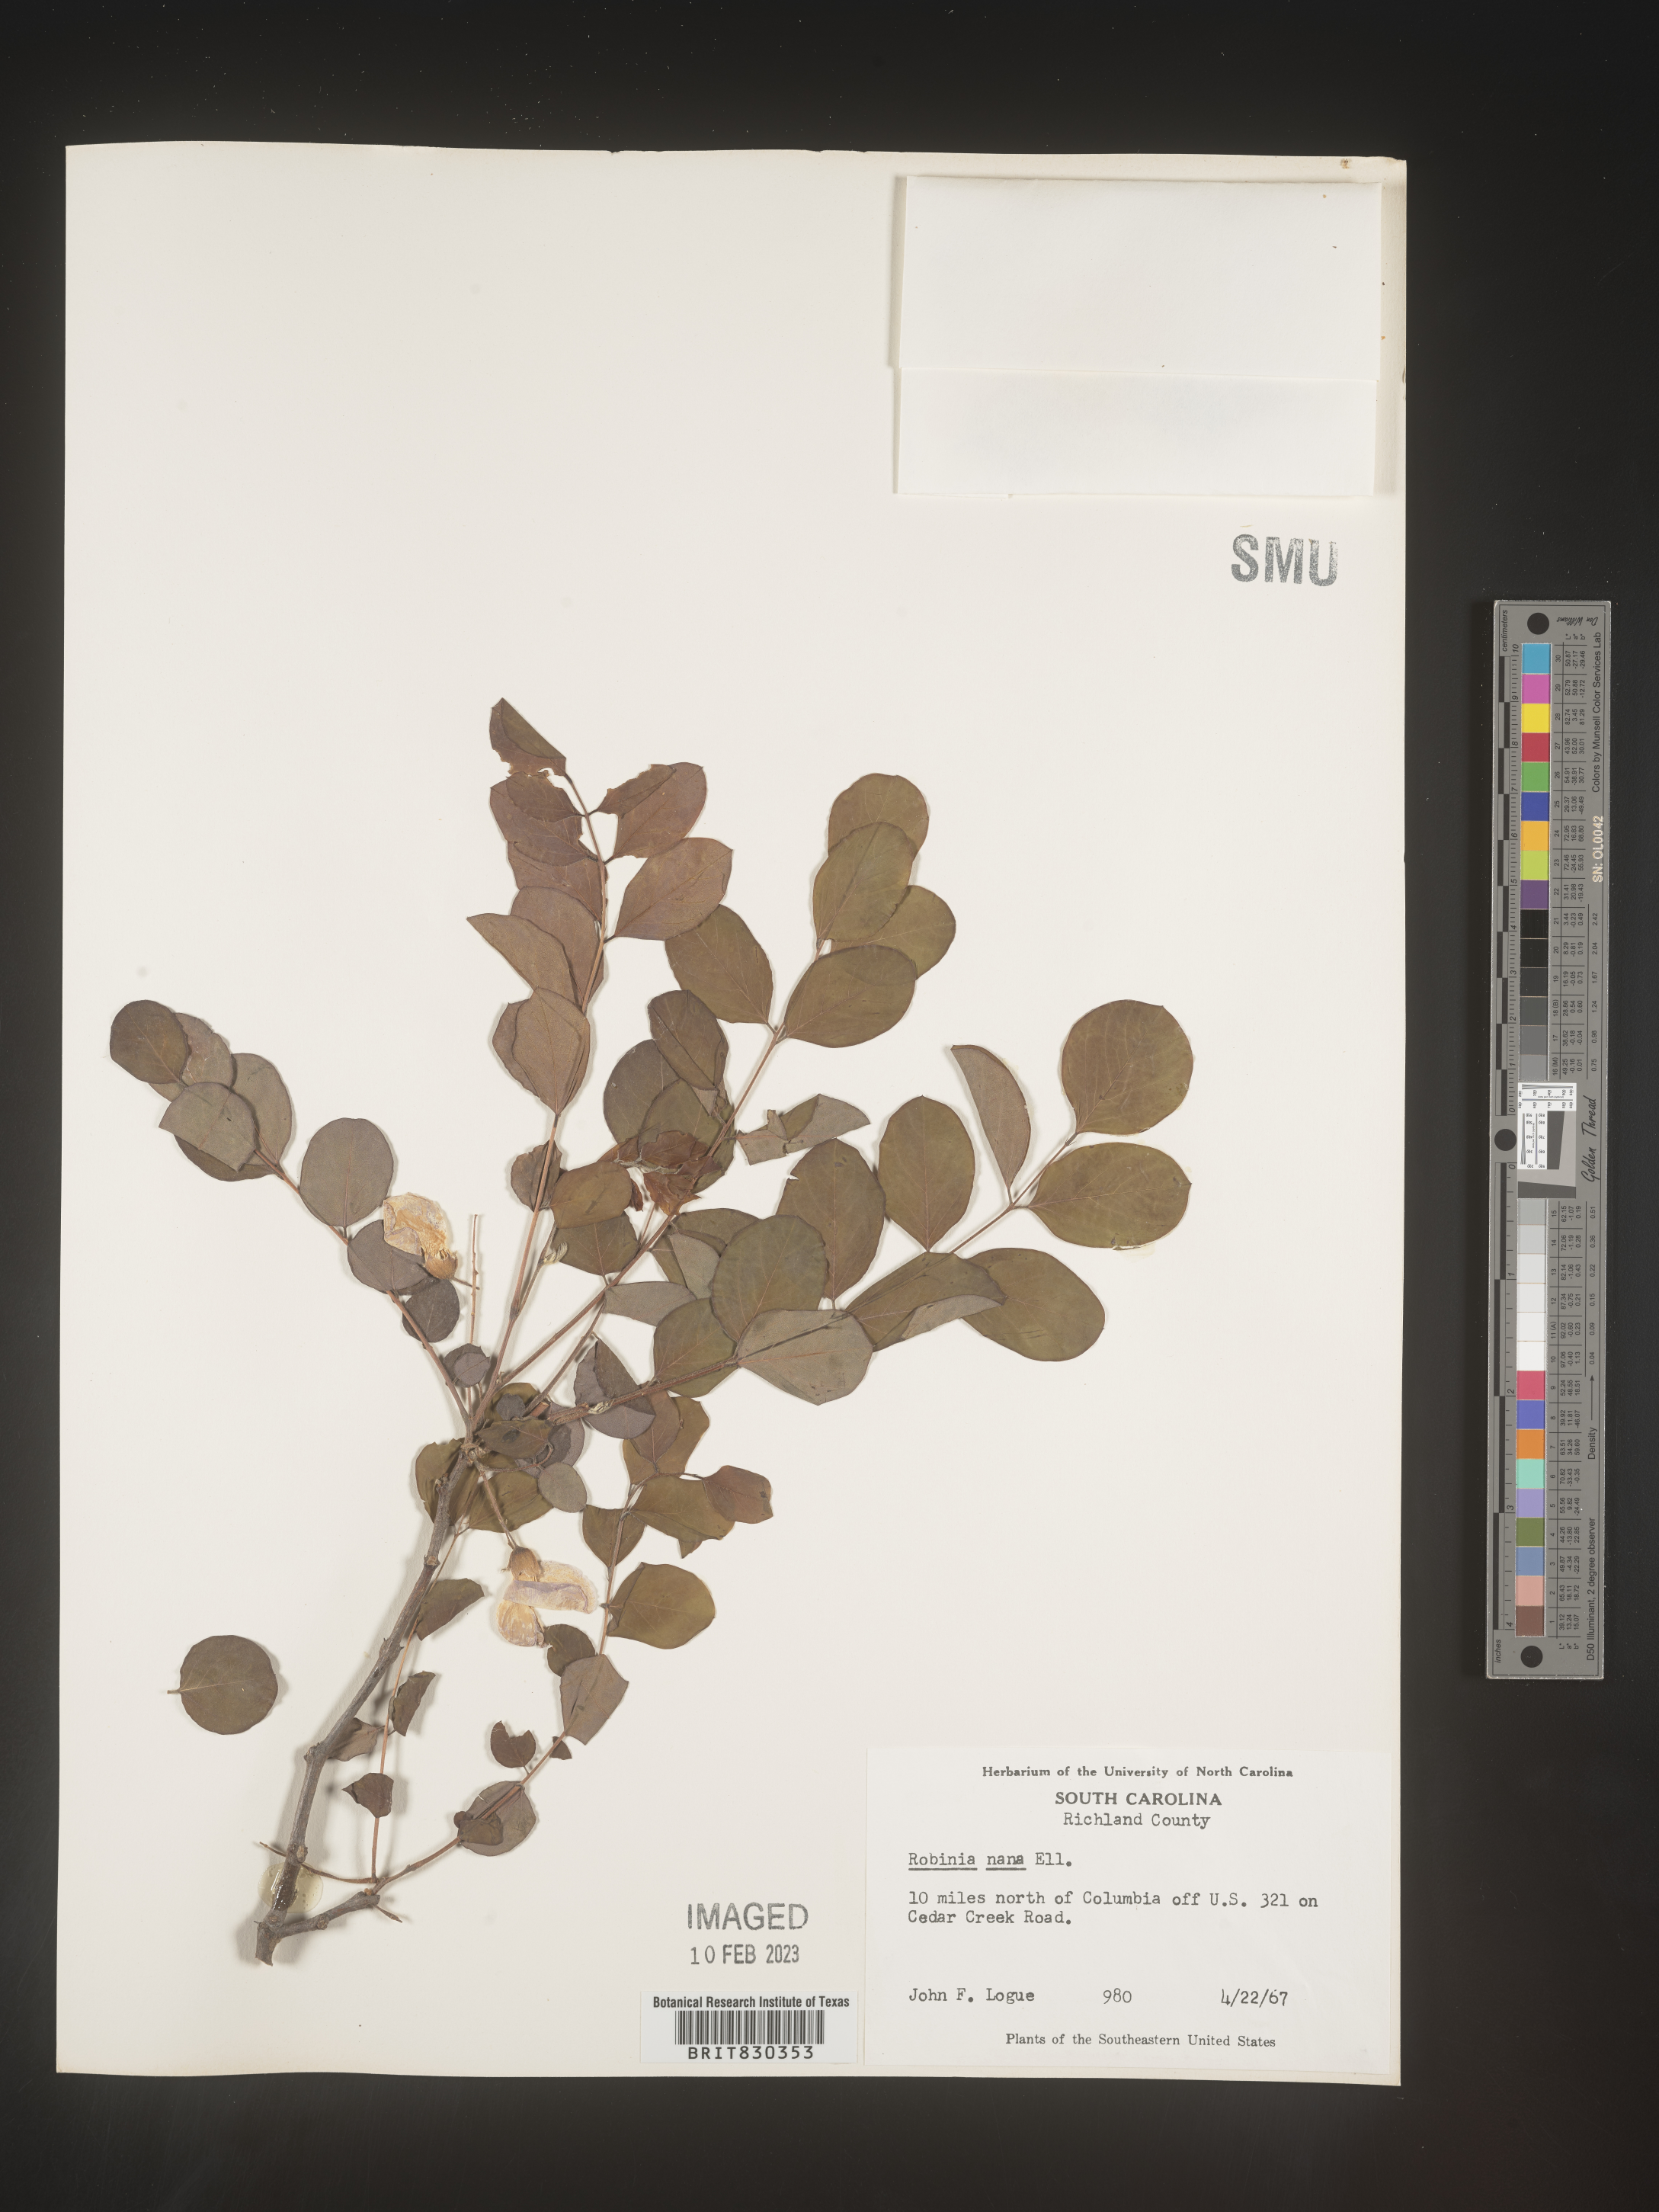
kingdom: Plantae
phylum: Tracheophyta
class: Magnoliopsida
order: Fabales
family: Fabaceae
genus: Robinia
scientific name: Robinia
